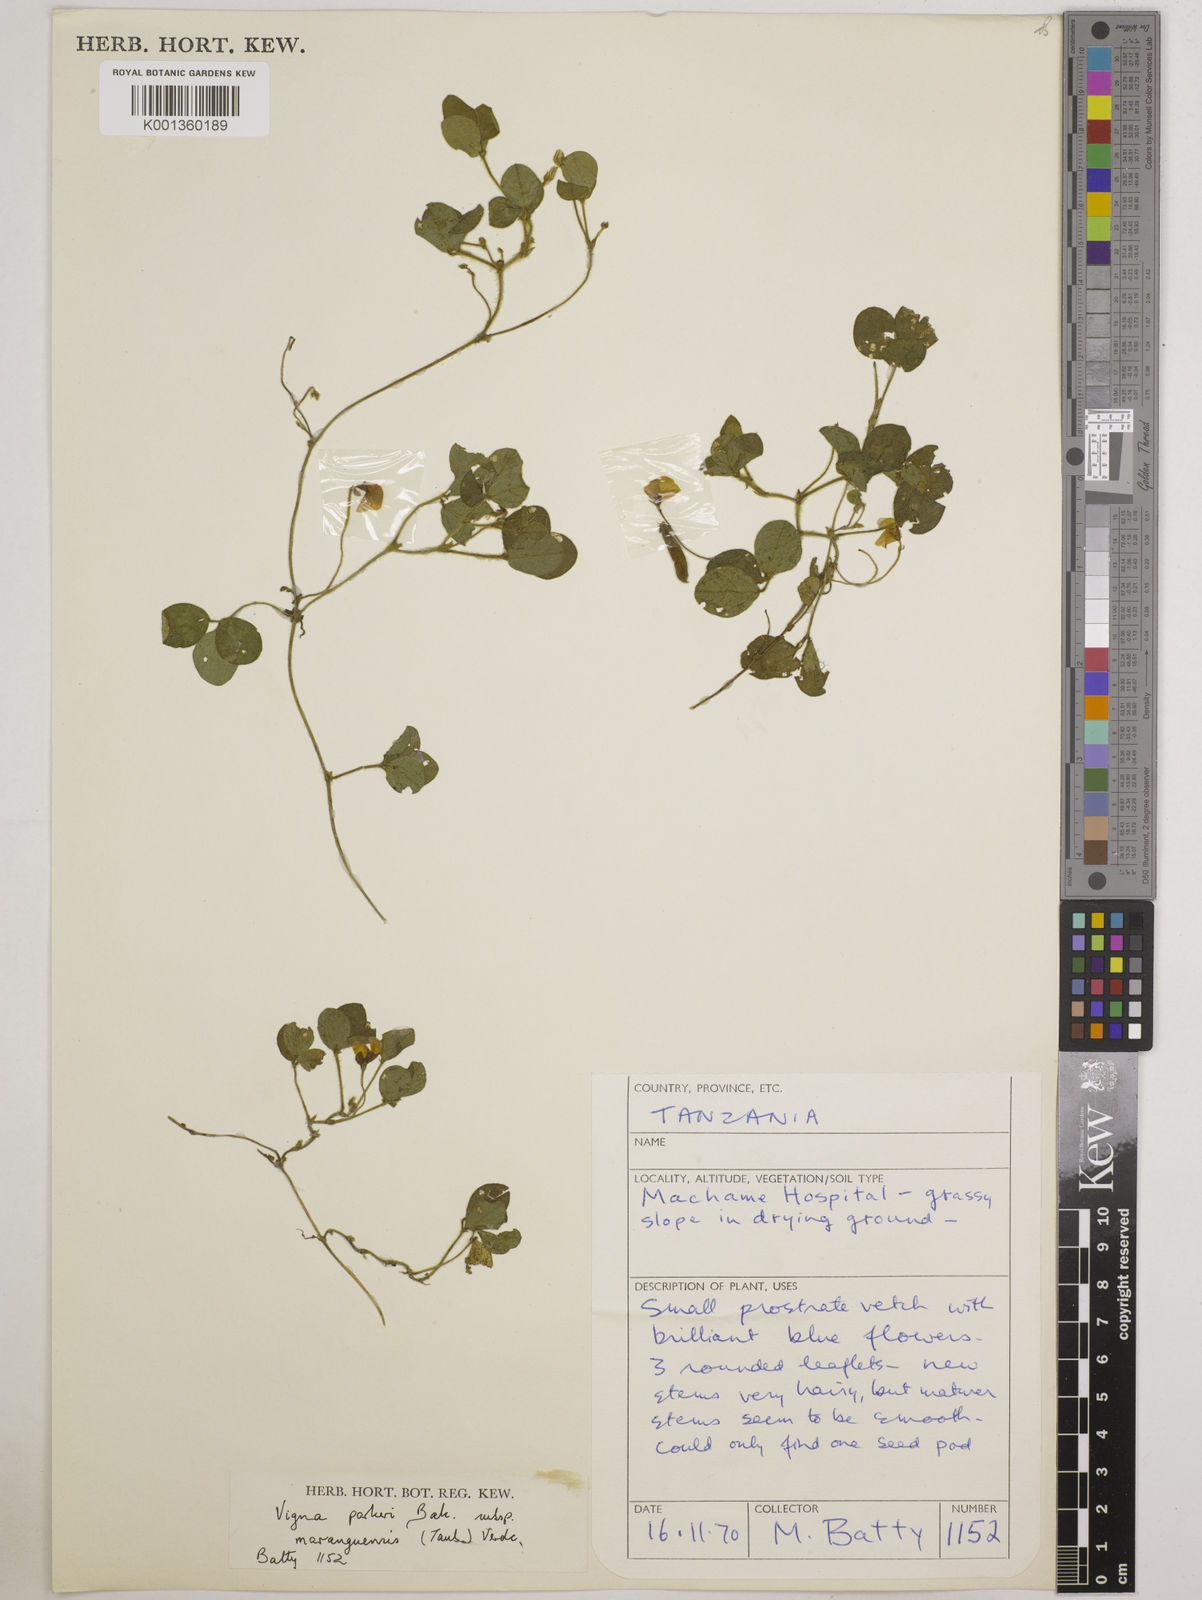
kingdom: Plantae
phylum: Tracheophyta
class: Magnoliopsida
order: Fabales
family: Fabaceae
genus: Vigna
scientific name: Vigna
